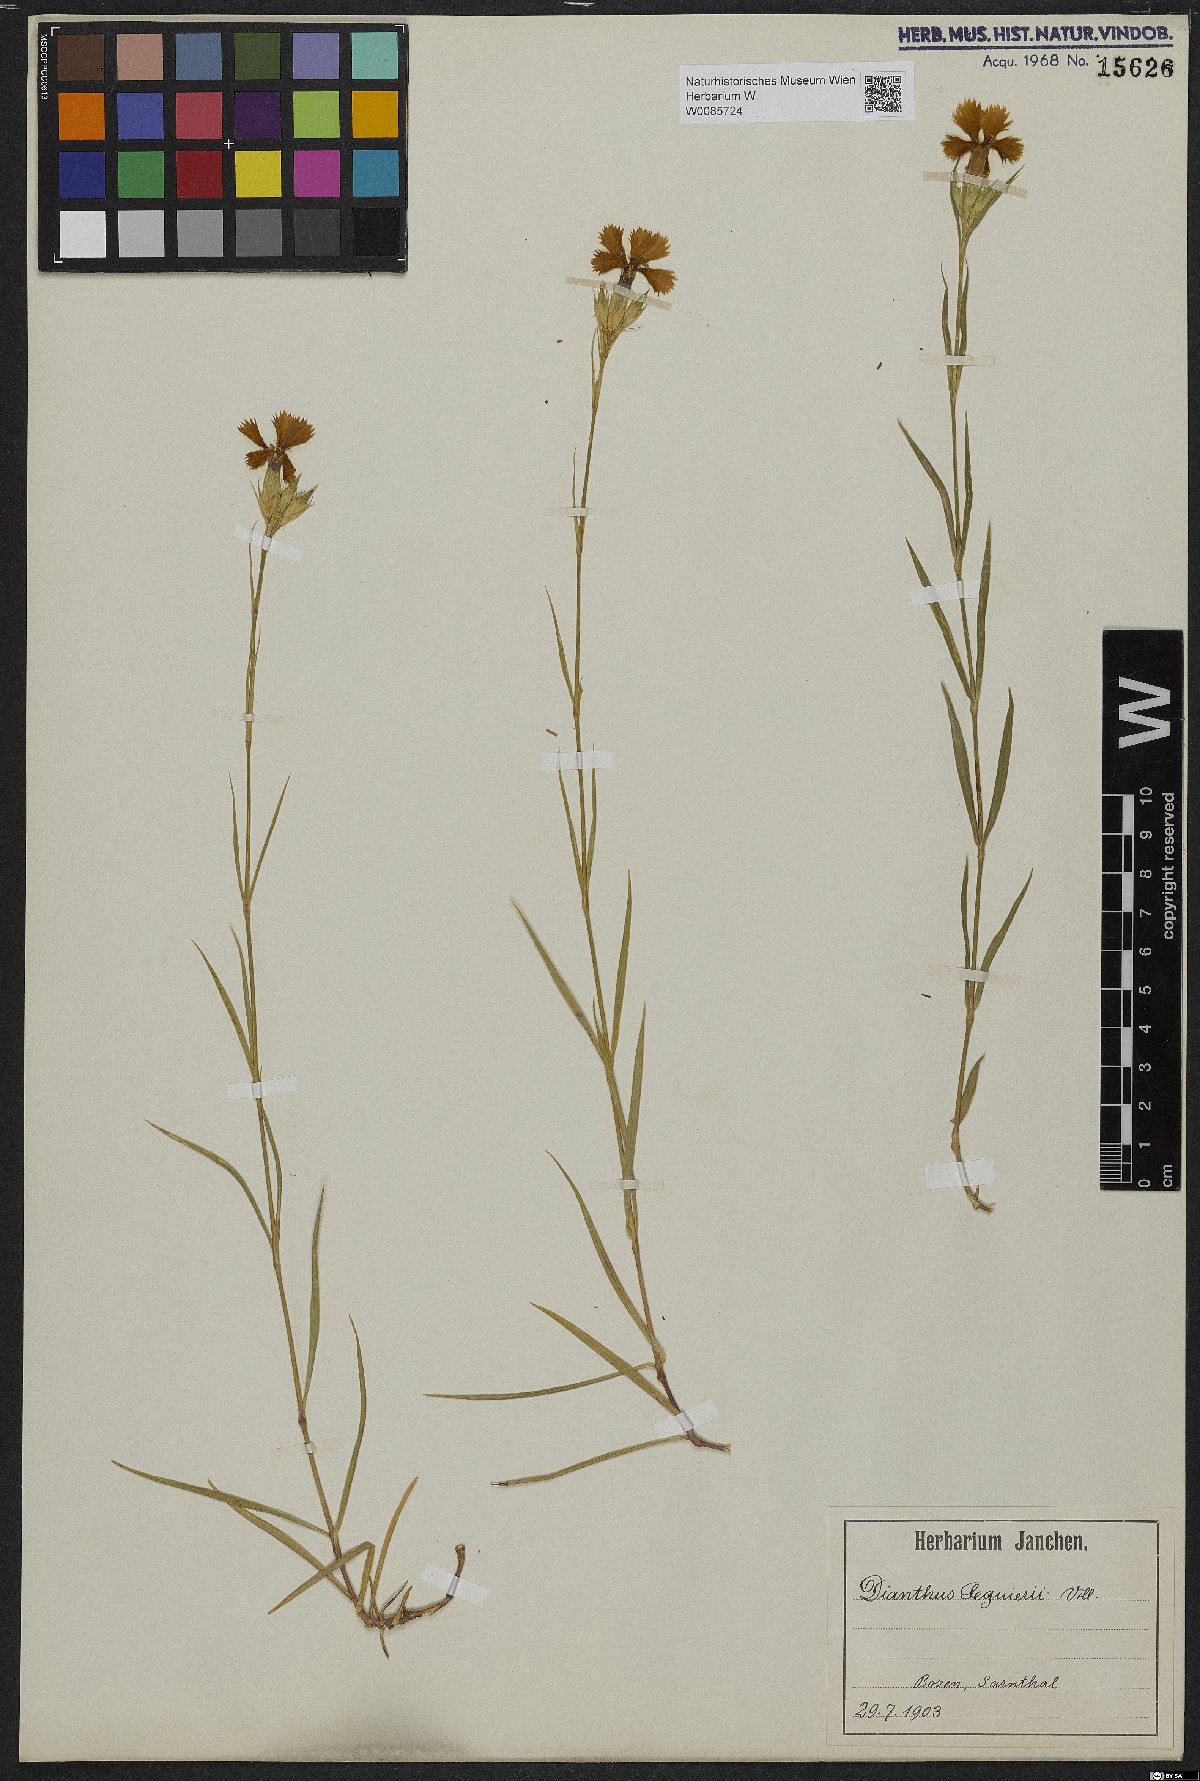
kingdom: Plantae
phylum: Tracheophyta
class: Magnoliopsida
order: Caryophyllales
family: Caryophyllaceae
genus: Dianthus
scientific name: Dianthus seguieri
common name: Ragged pink
